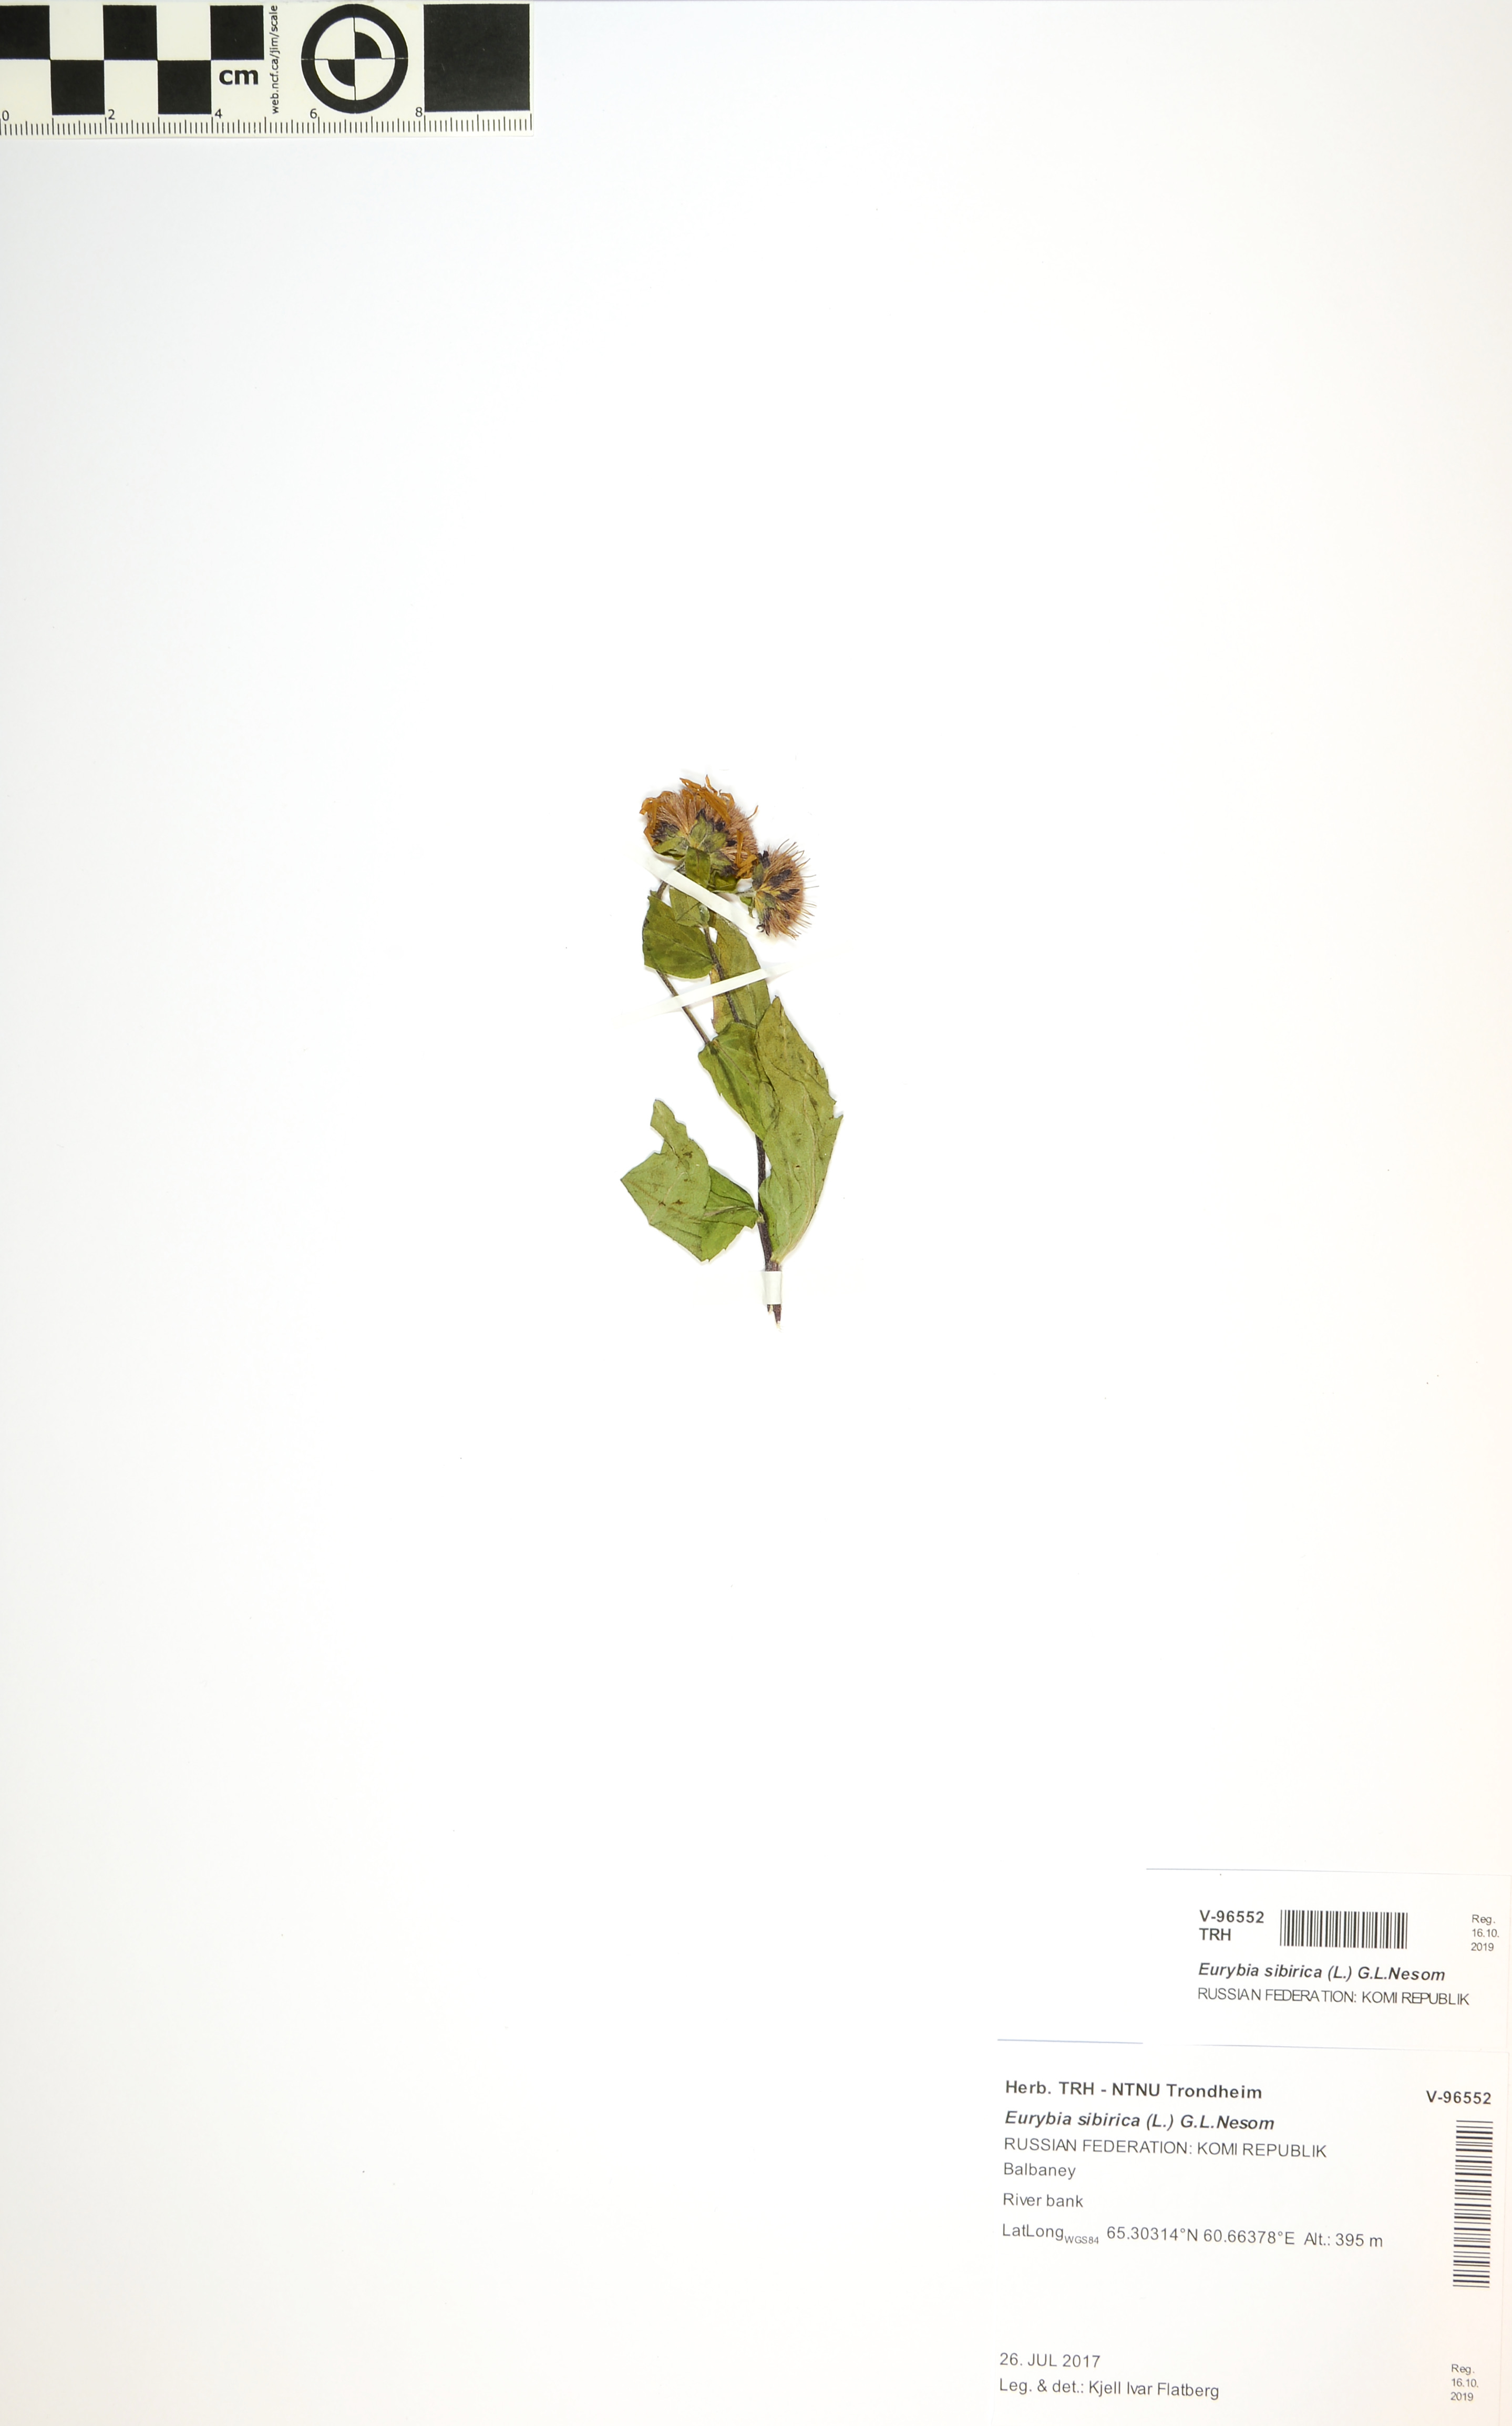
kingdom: Plantae
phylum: Tracheophyta
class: Magnoliopsida
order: Asterales
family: Asteraceae
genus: Eurybia
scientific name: Eurybia sibirica
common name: Arctic aster
